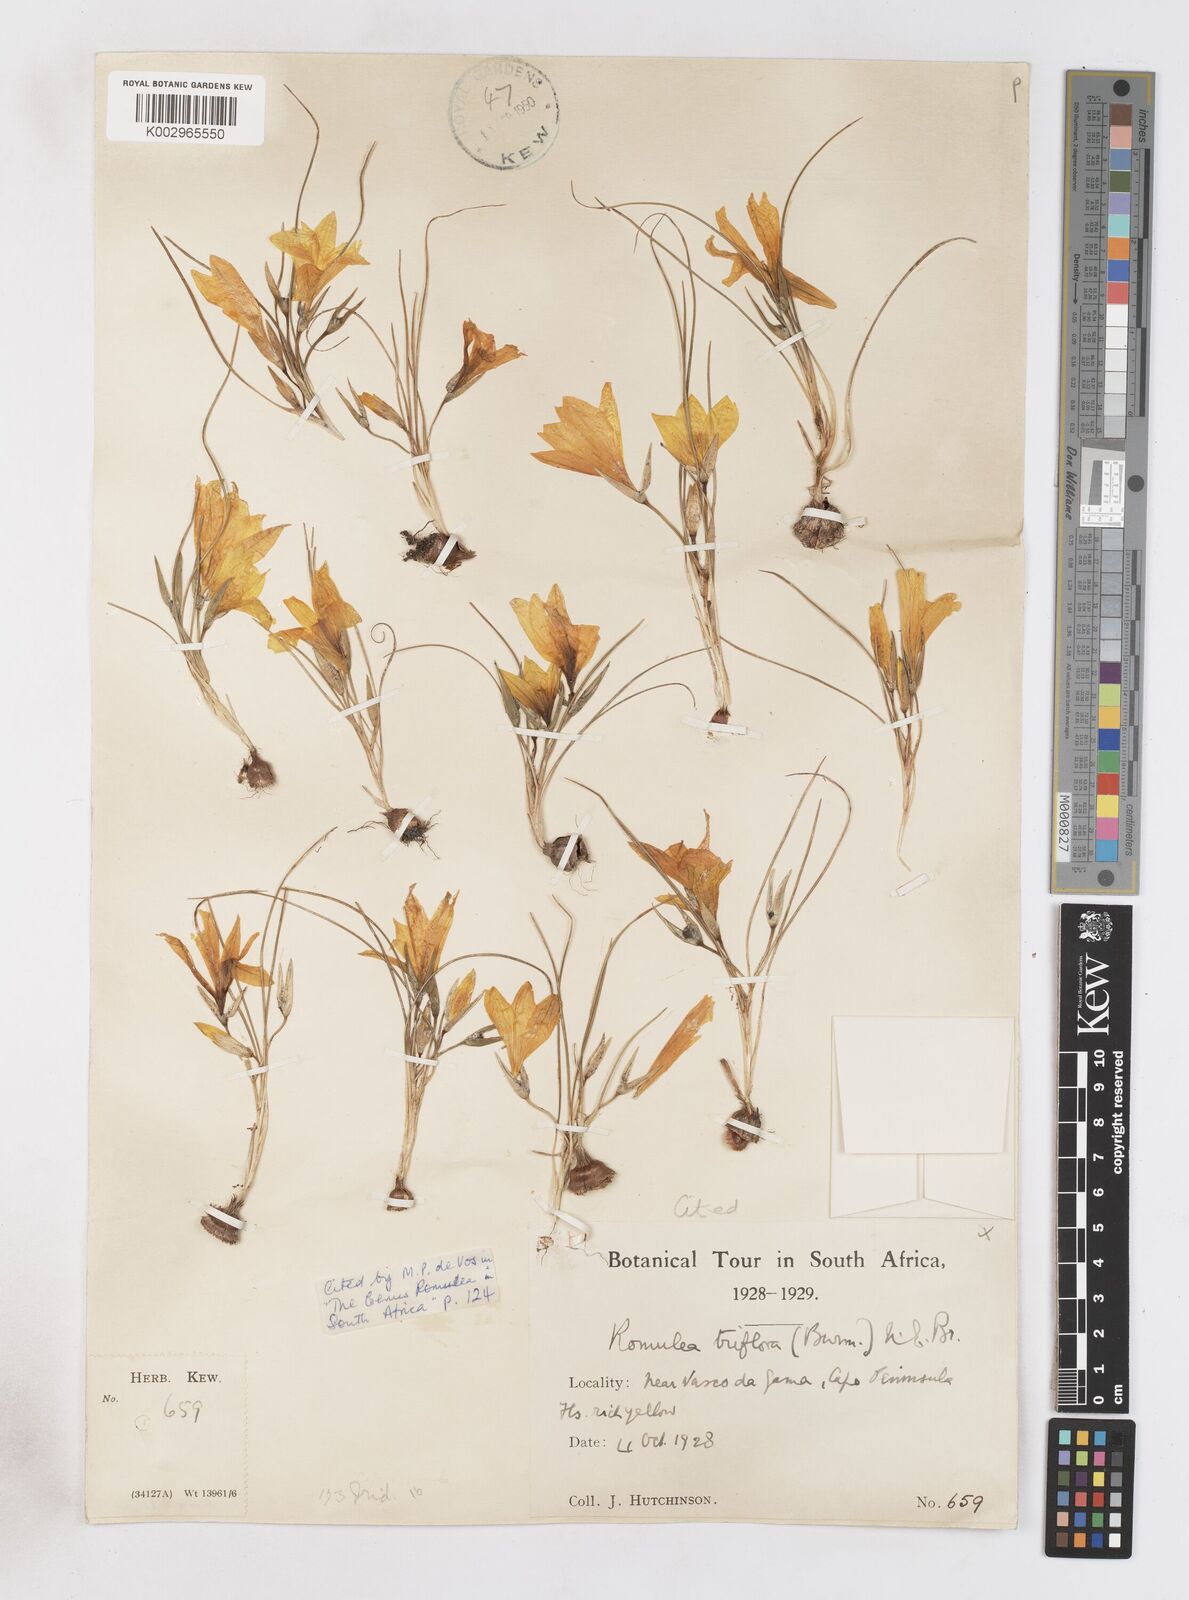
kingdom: Plantae
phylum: Tracheophyta
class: Liliopsida
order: Asparagales
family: Iridaceae
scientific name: Iridaceae
